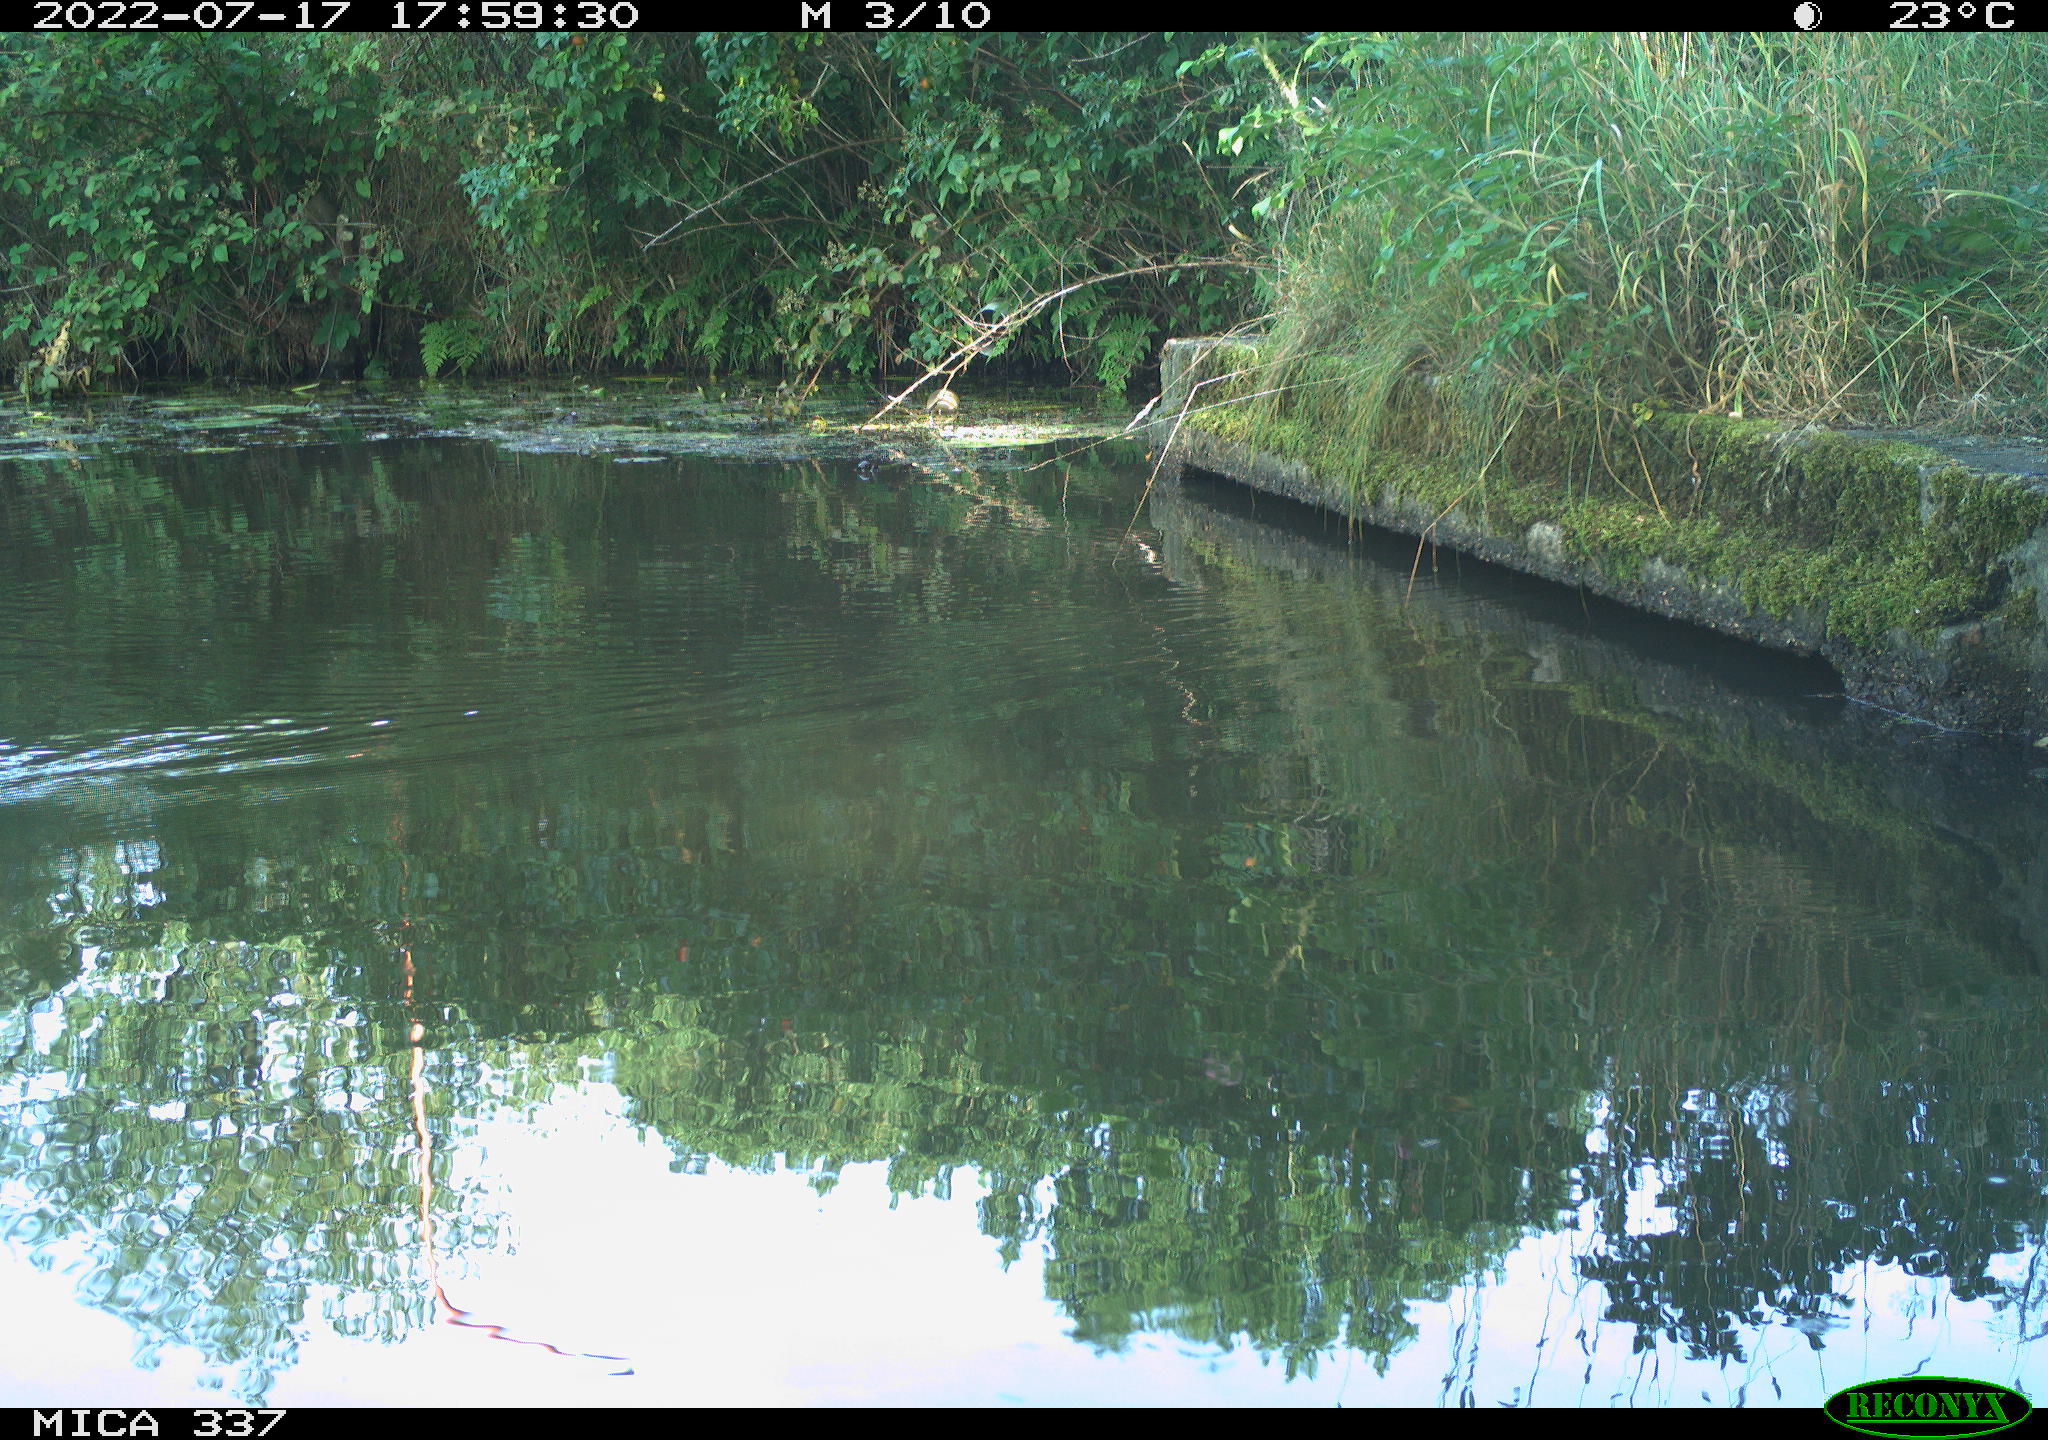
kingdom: Animalia
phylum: Chordata
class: Aves
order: Gruiformes
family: Rallidae
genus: Gallinula
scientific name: Gallinula chloropus
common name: Common moorhen
